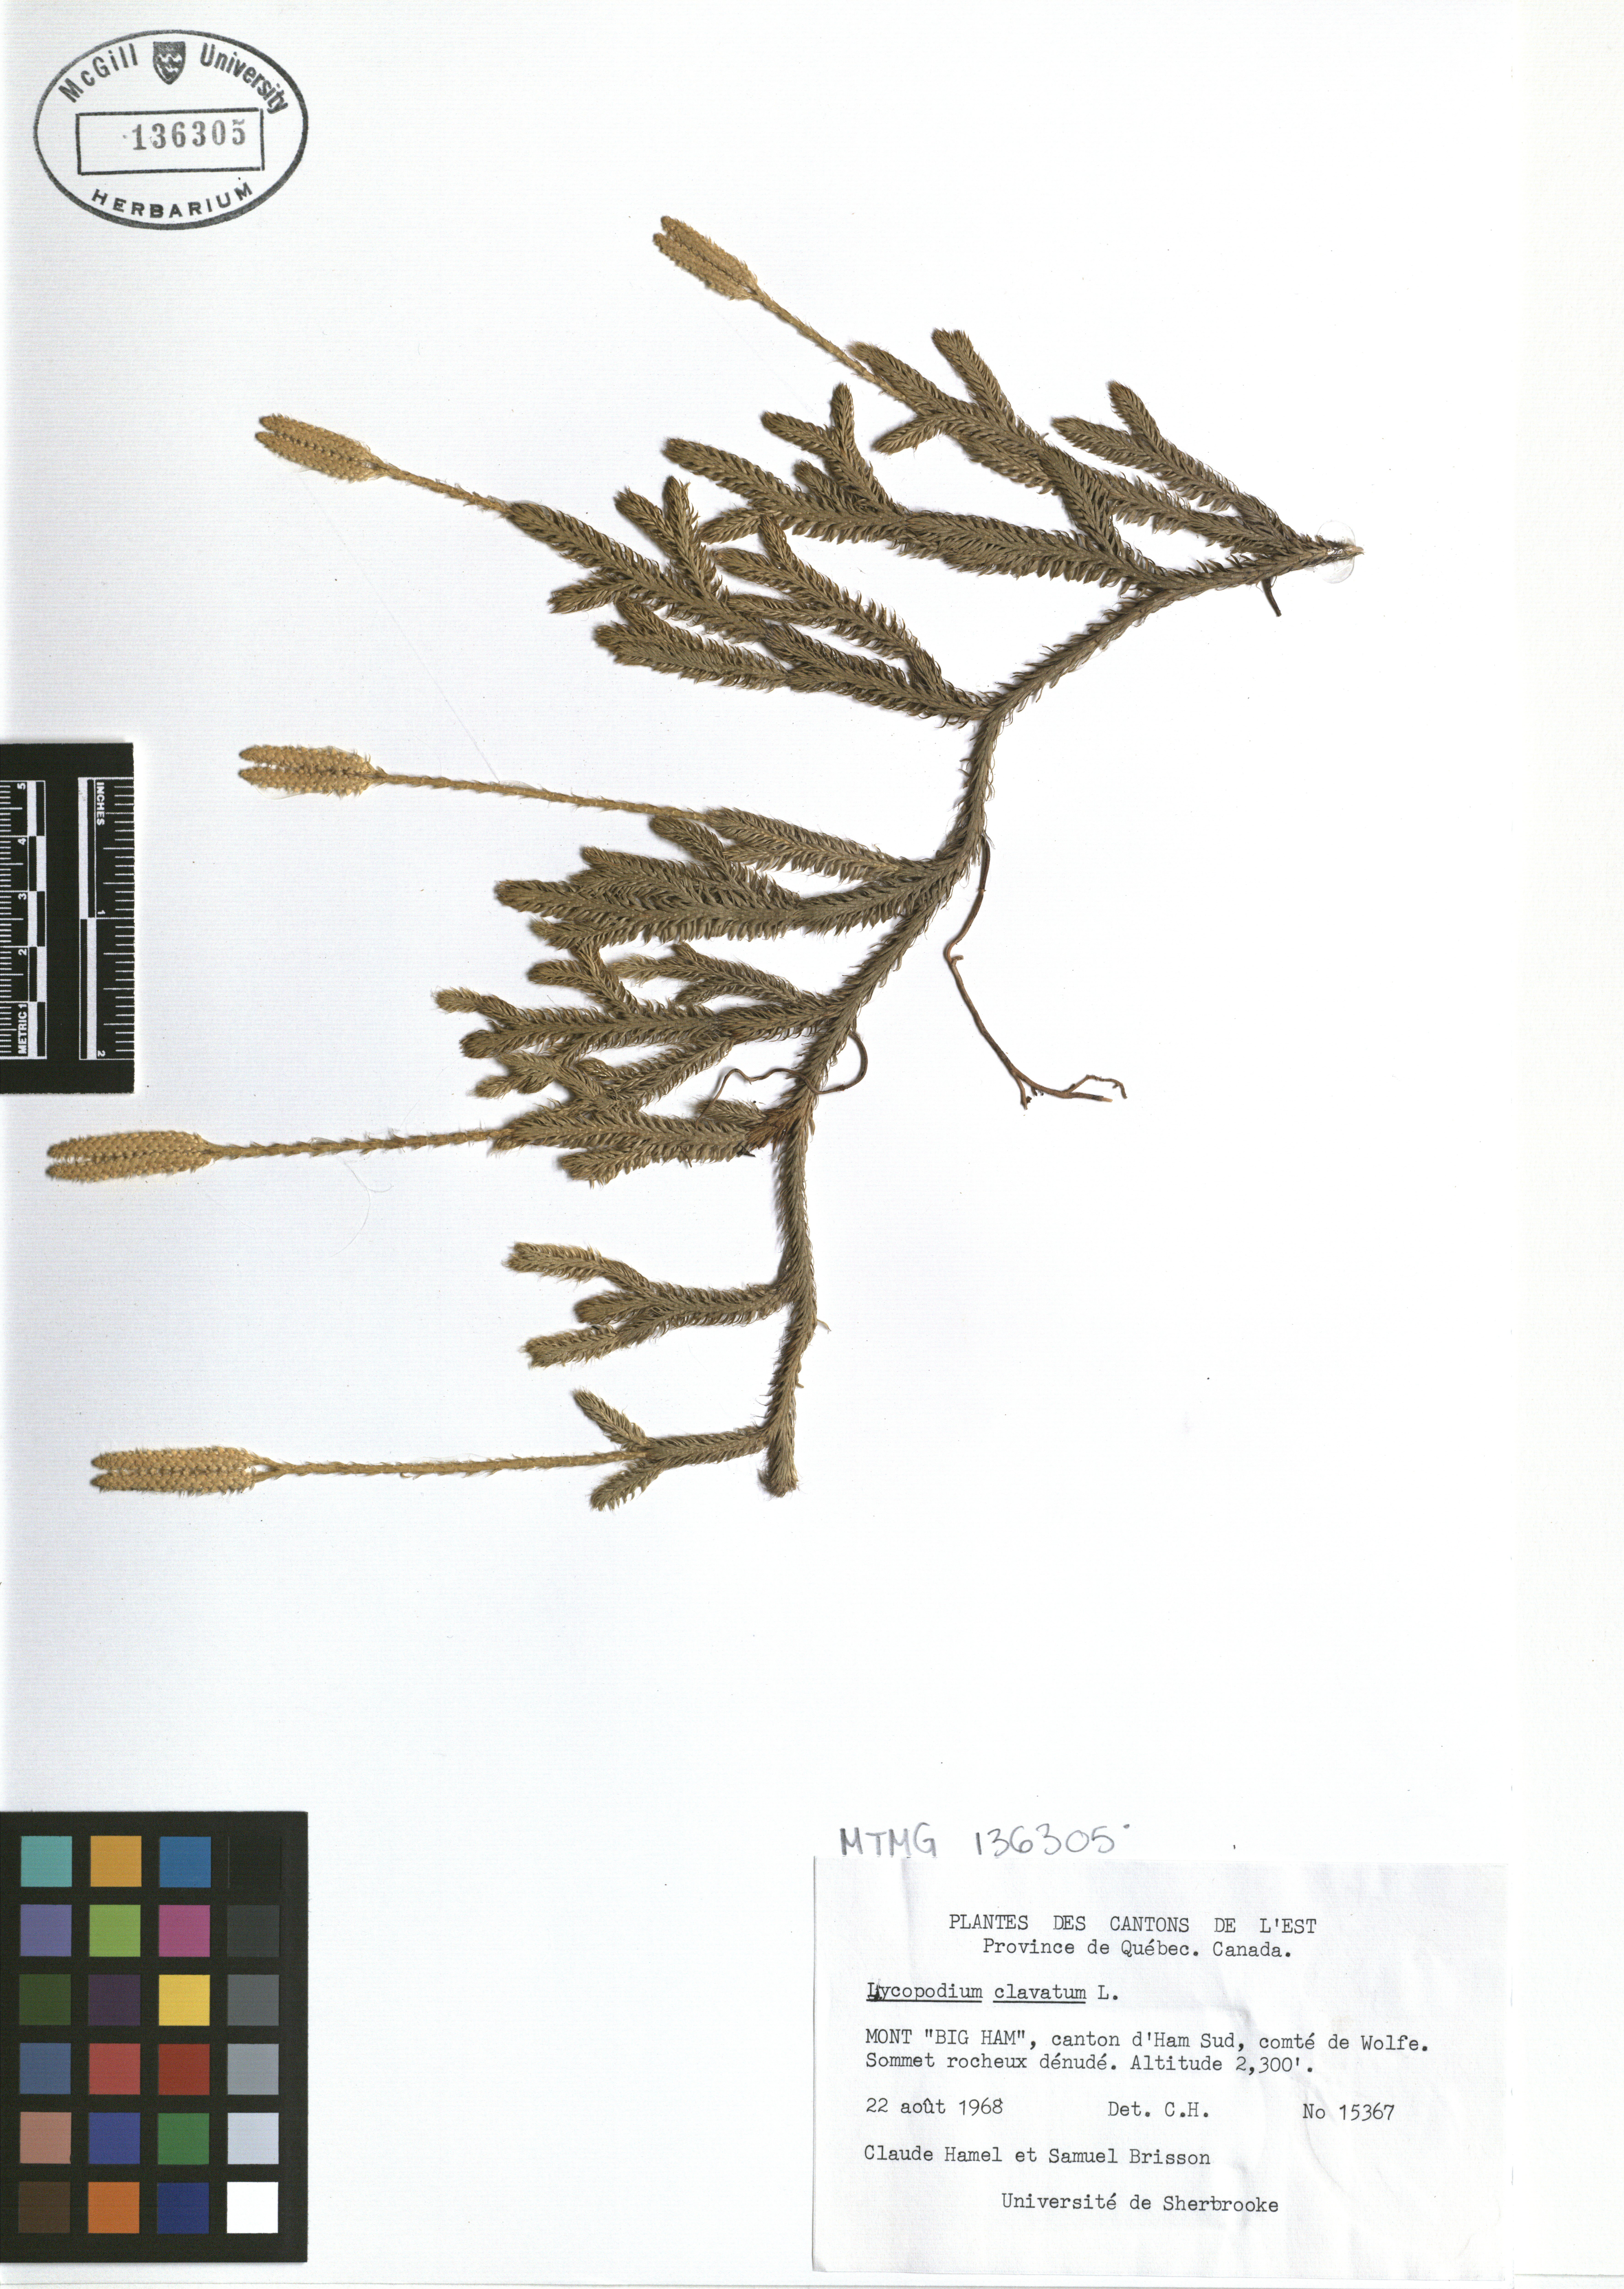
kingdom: Plantae
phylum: Tracheophyta
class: Lycopodiopsida
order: Lycopodiales
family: Lycopodiaceae
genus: Lycopodium
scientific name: Lycopodium clavatum
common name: Stag's-horn clubmoss
